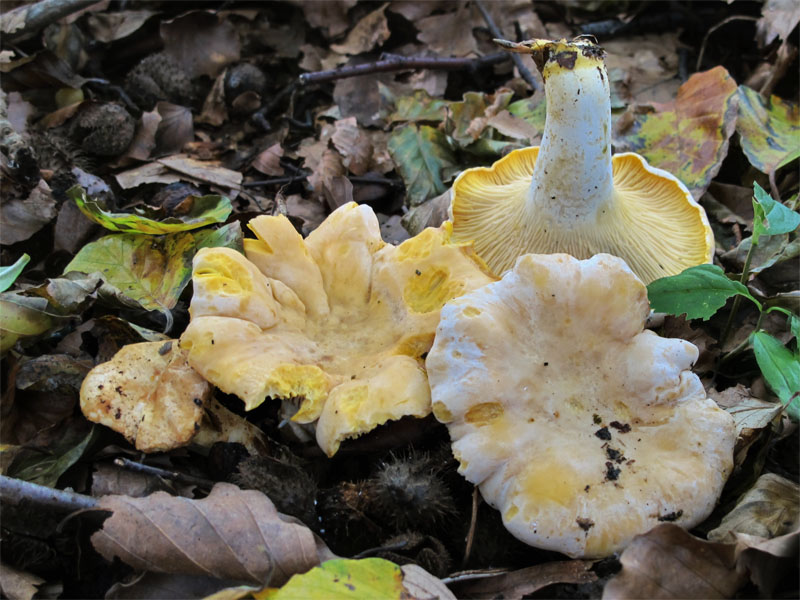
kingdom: Fungi
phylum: Basidiomycota
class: Agaricomycetes
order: Cantharellales
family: Hydnaceae
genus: Cantharellus
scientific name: Cantharellus pallens
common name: bleg kantarel
